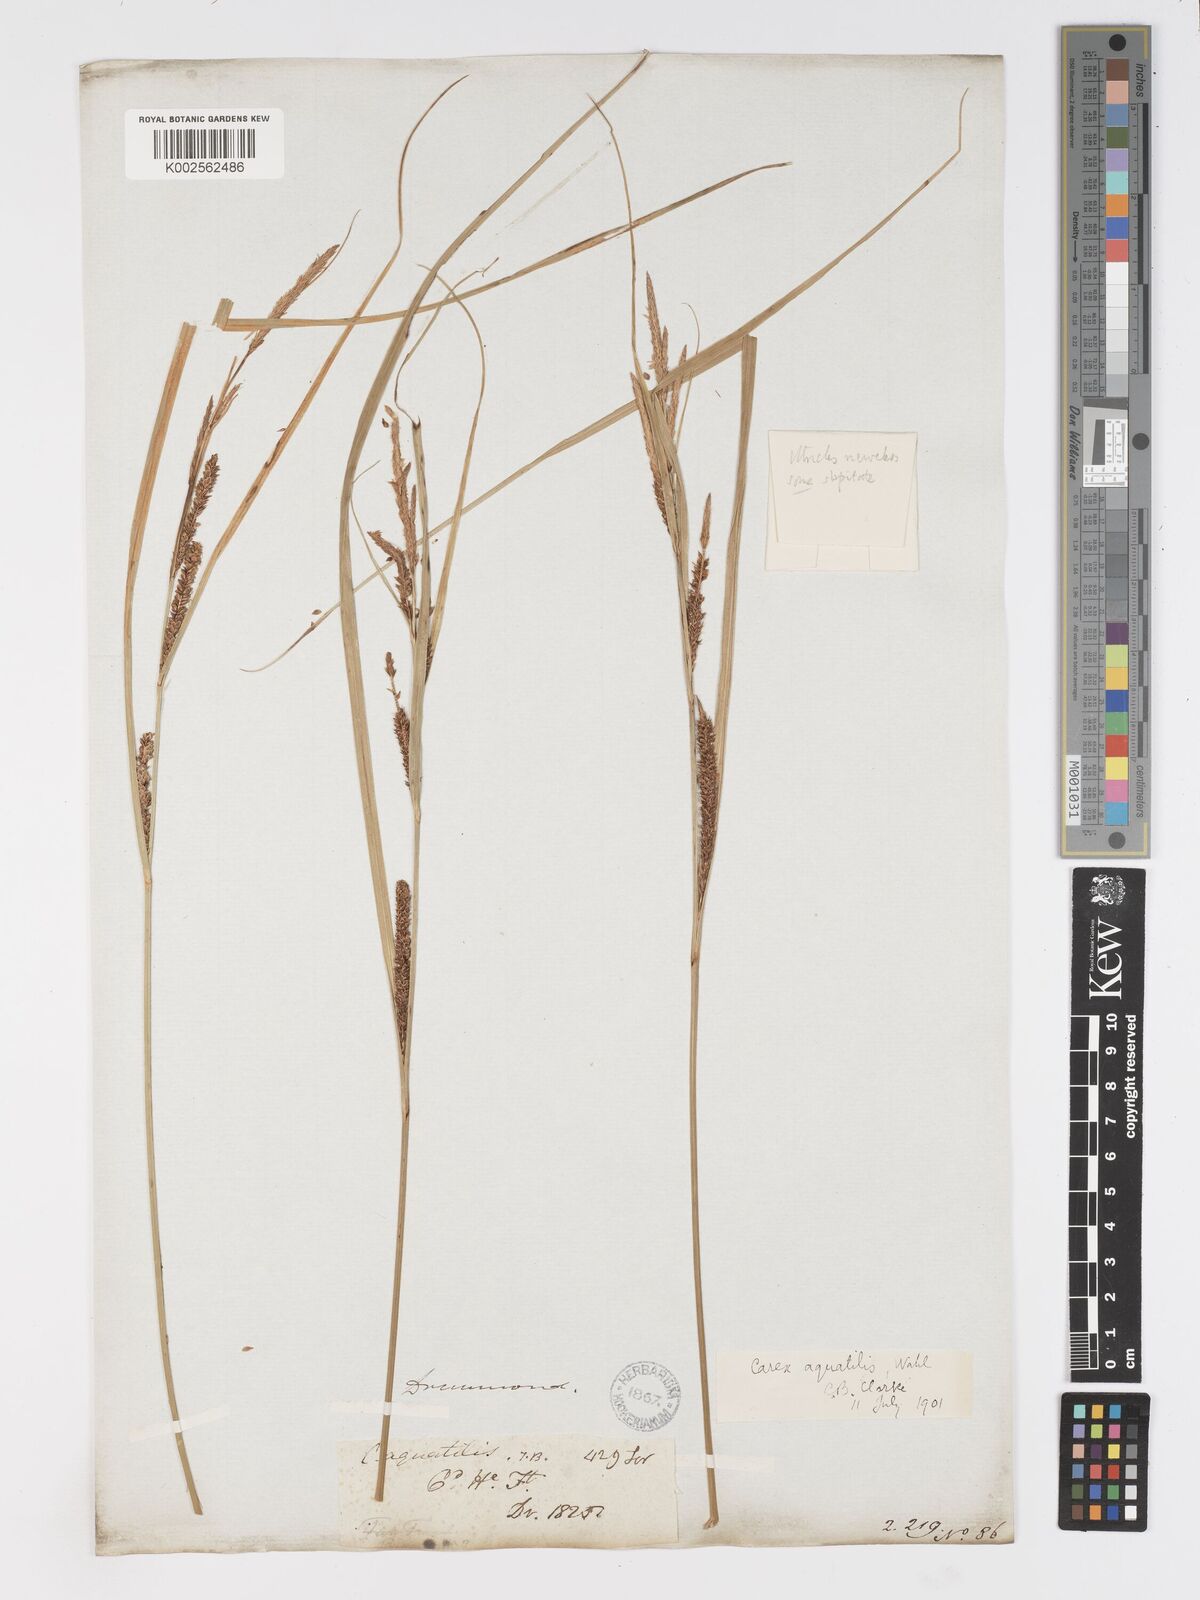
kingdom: Plantae
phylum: Tracheophyta
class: Liliopsida
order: Poales
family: Cyperaceae
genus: Carex
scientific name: Carex
